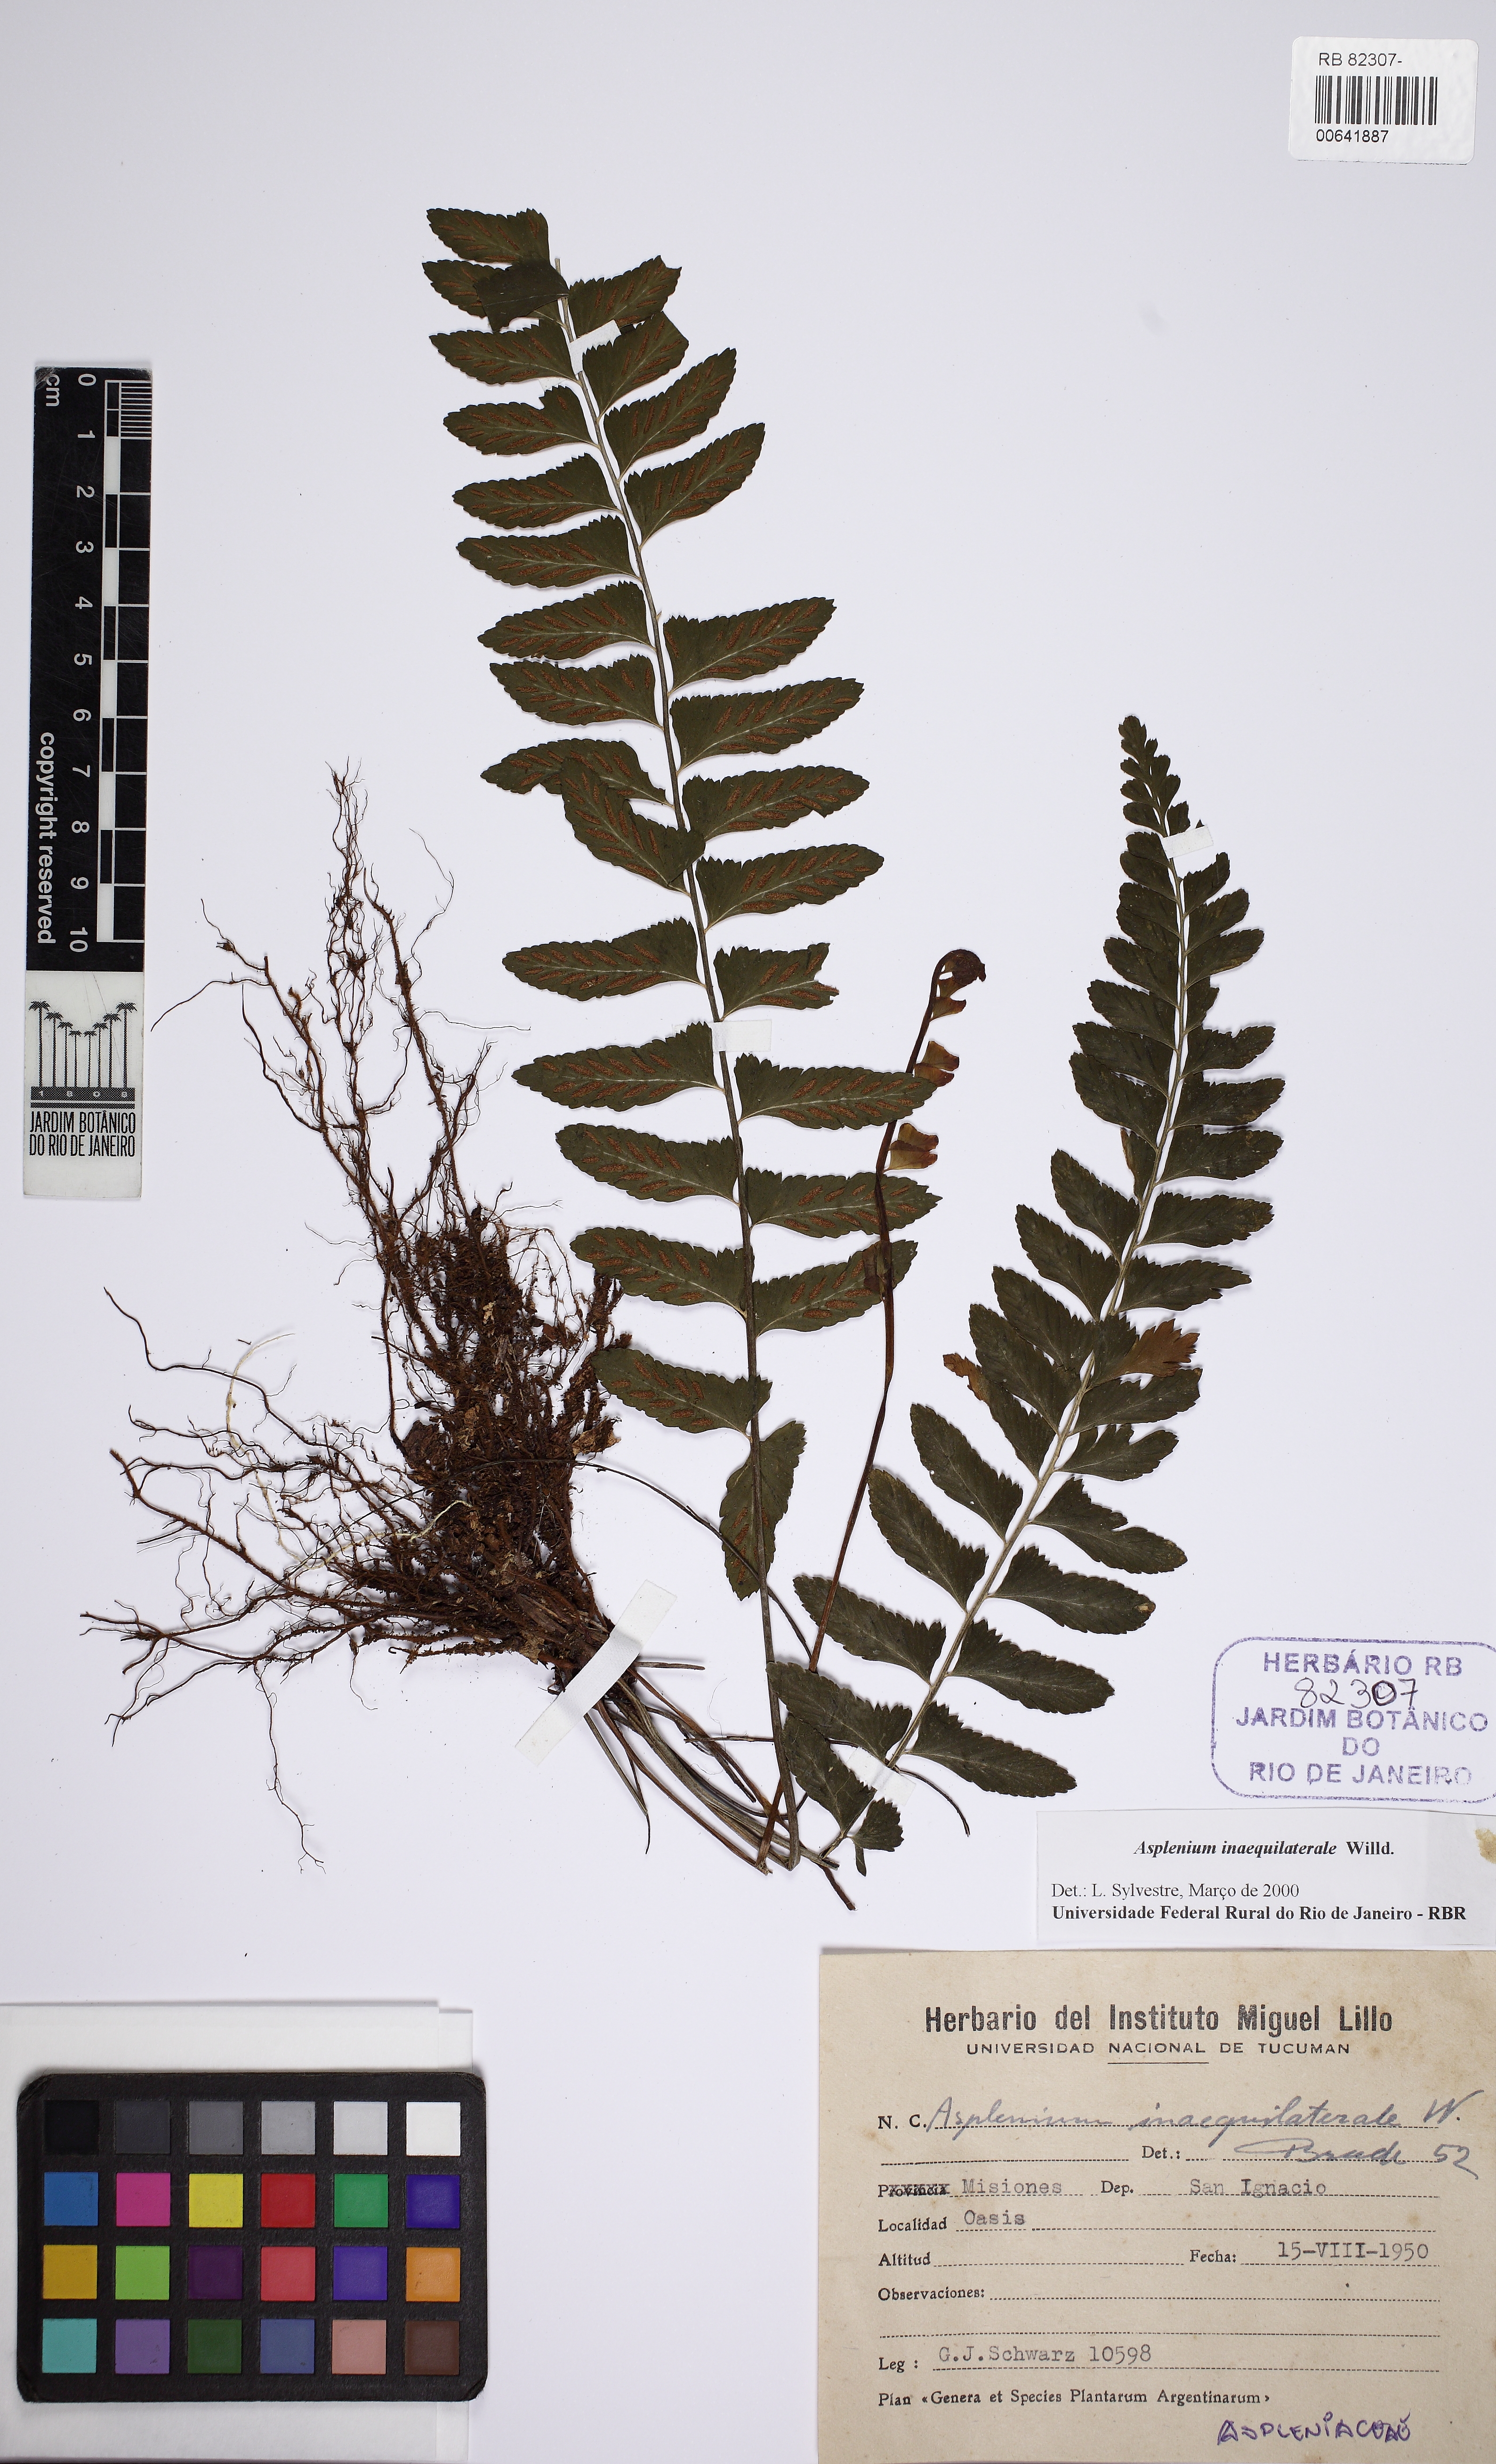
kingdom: Plantae
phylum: Tracheophyta
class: Polypodiopsida
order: Polypodiales
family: Aspleniaceae
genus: Asplenium
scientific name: Asplenium inaequilaterale
